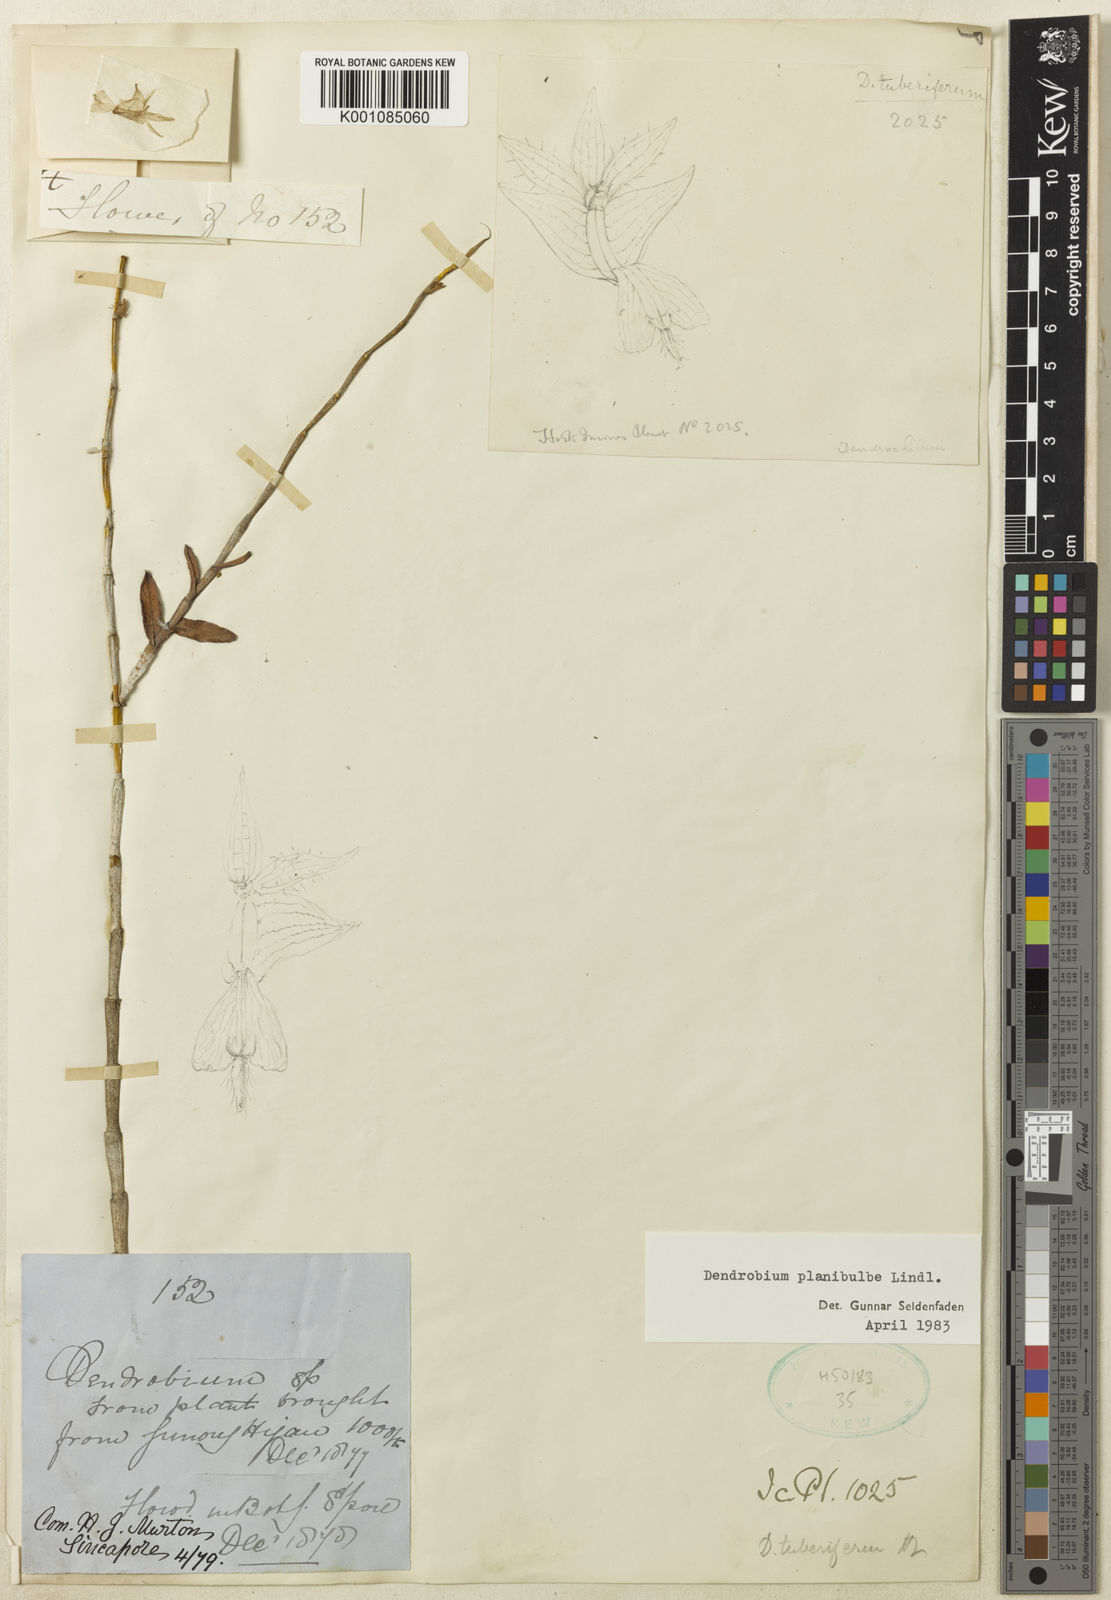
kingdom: Plantae
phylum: Tracheophyta
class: Liliopsida
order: Asparagales
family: Orchidaceae
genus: Dendrobium
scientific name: Dendrobium planibulbe
